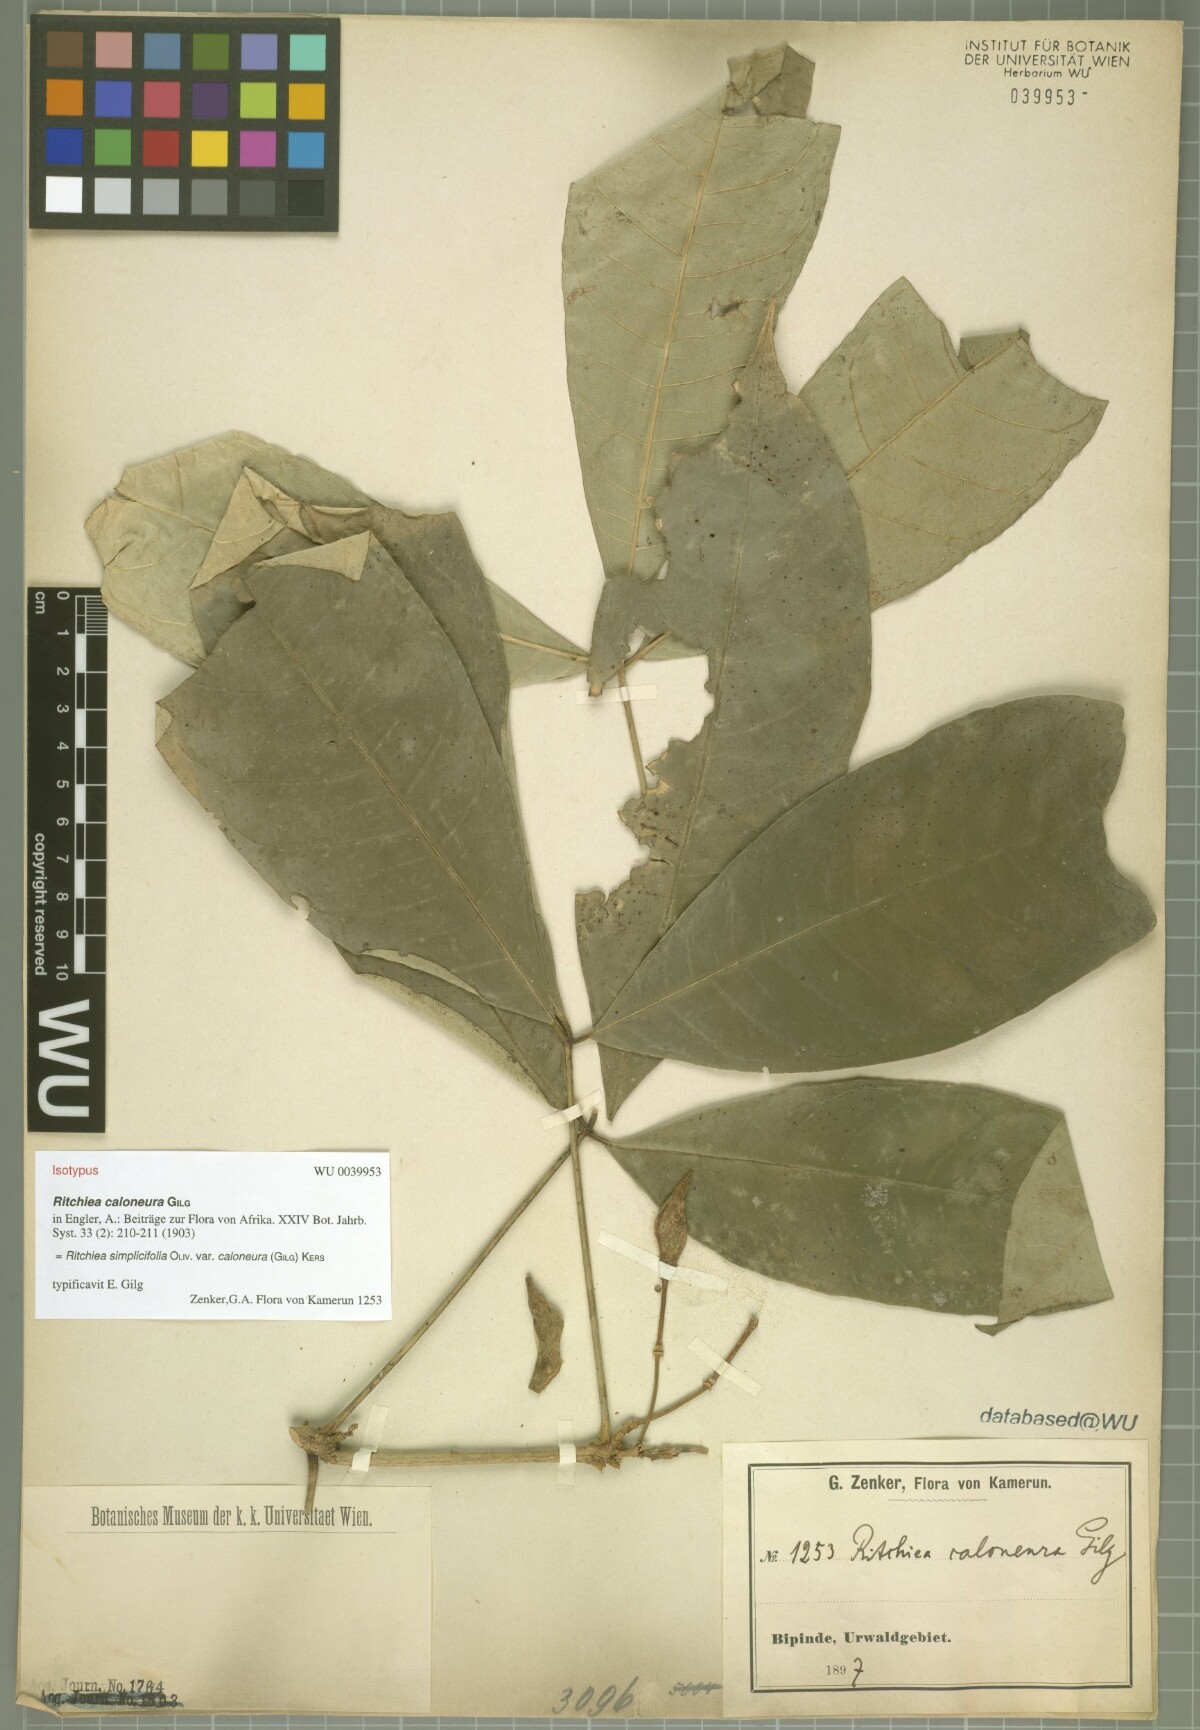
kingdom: Plantae
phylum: Tracheophyta
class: Magnoliopsida
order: Brassicales
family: Capparaceae
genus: Ritchiea
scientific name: Ritchiea simplicifolia
